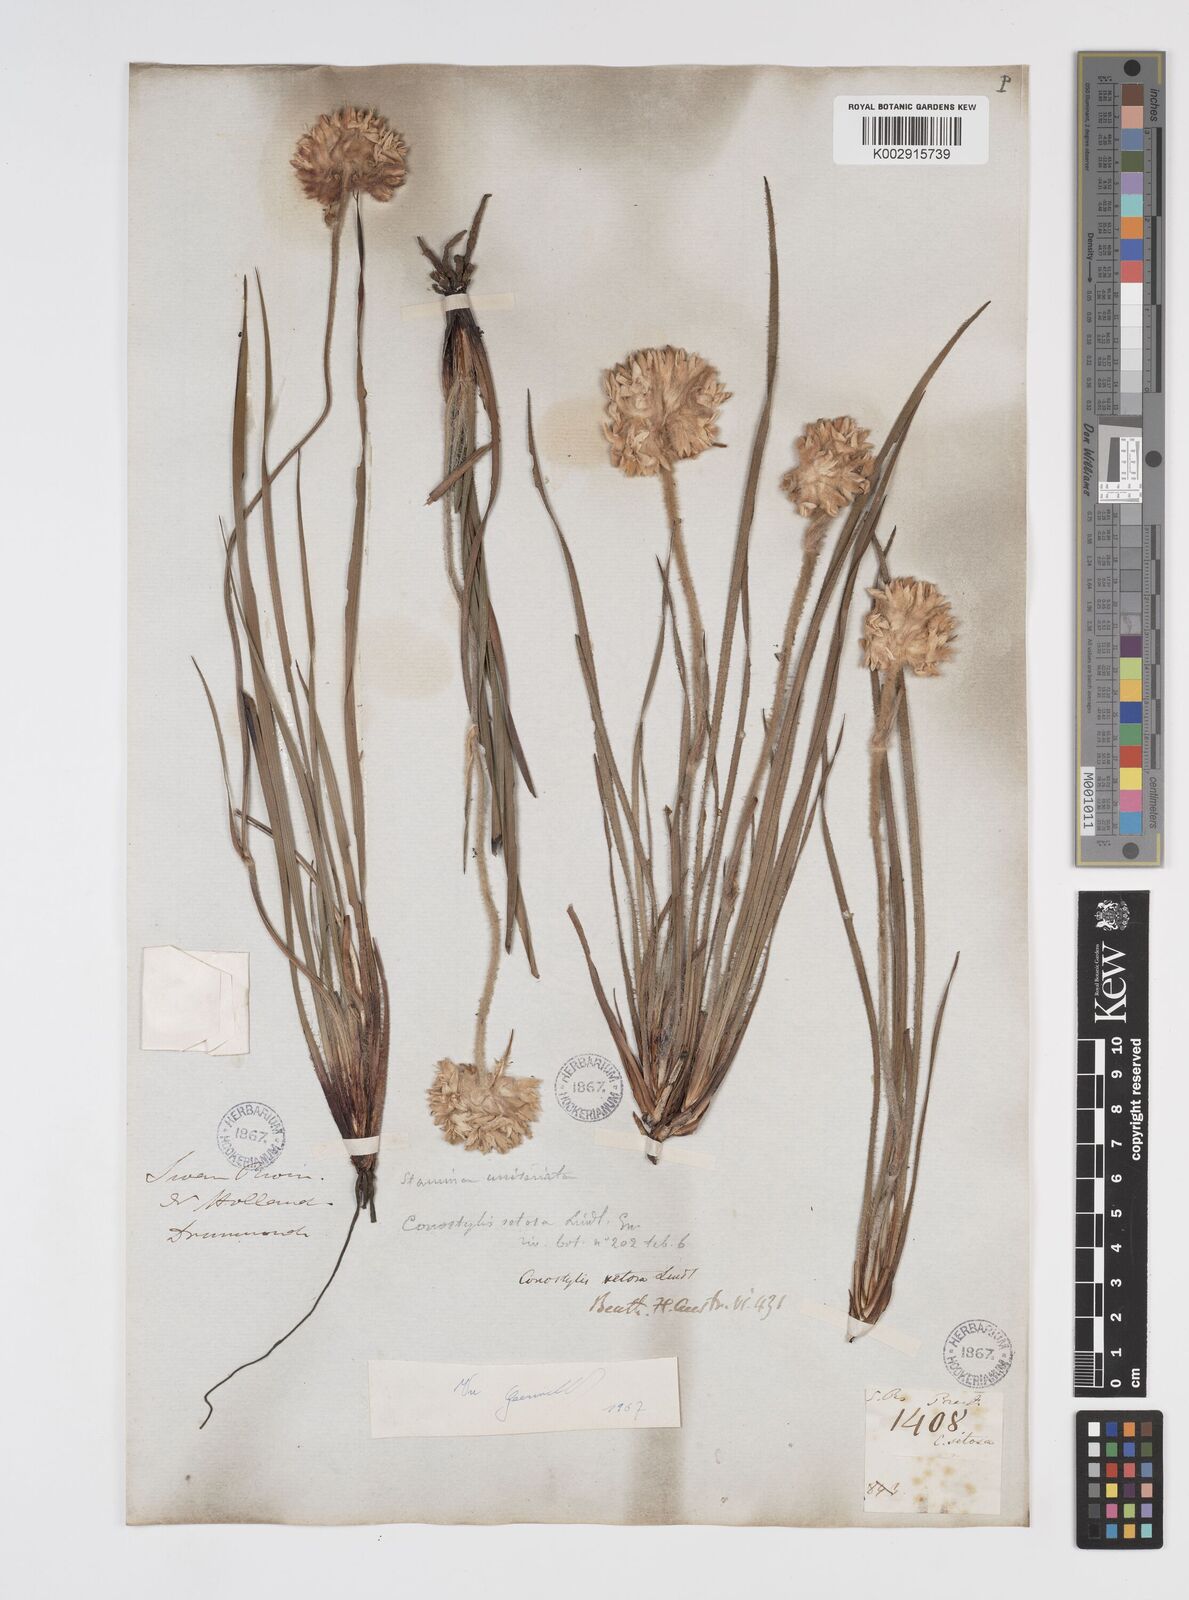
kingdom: Plantae
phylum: Tracheophyta
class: Liliopsida
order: Commelinales
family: Haemodoraceae
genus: Conostylis
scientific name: Conostylis setosa
